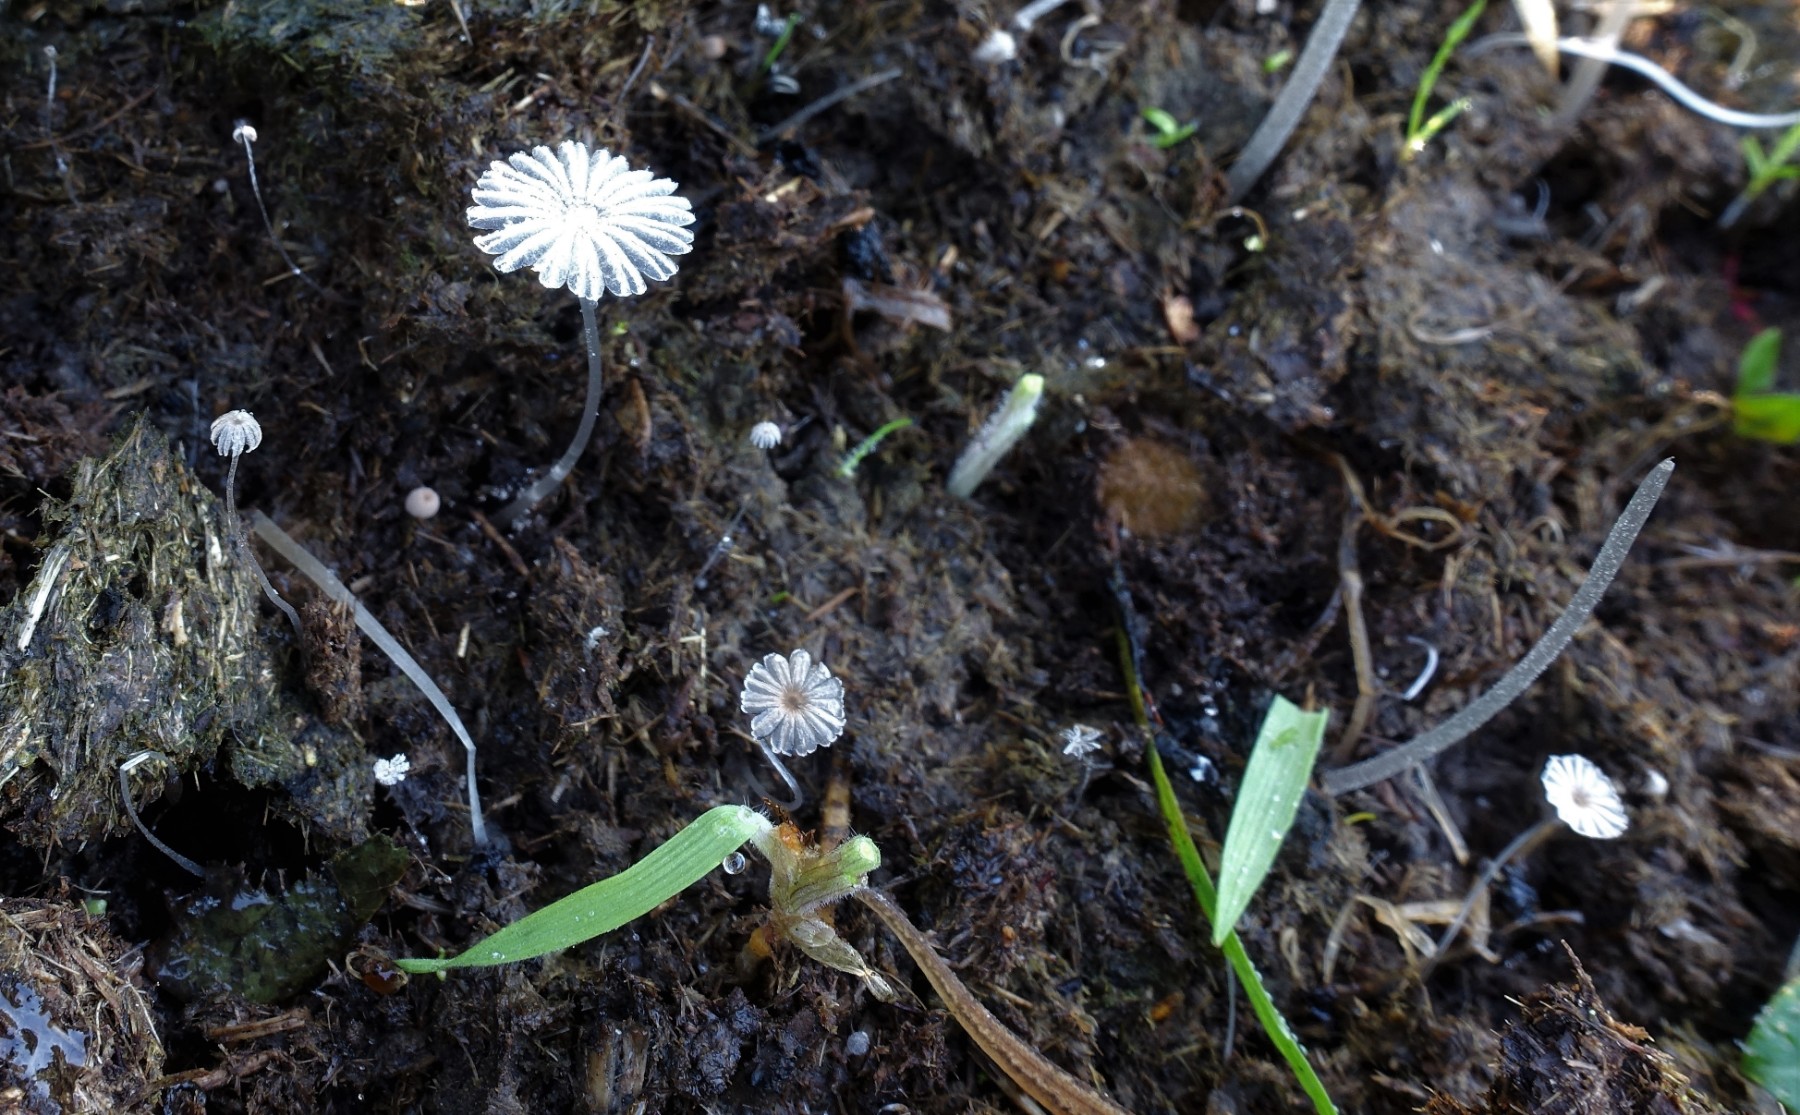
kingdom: Fungi
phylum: Basidiomycota
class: Agaricomycetes
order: Agaricales
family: Psathyrellaceae
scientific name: Psathyrellaceae
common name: mørkhatfamilien
